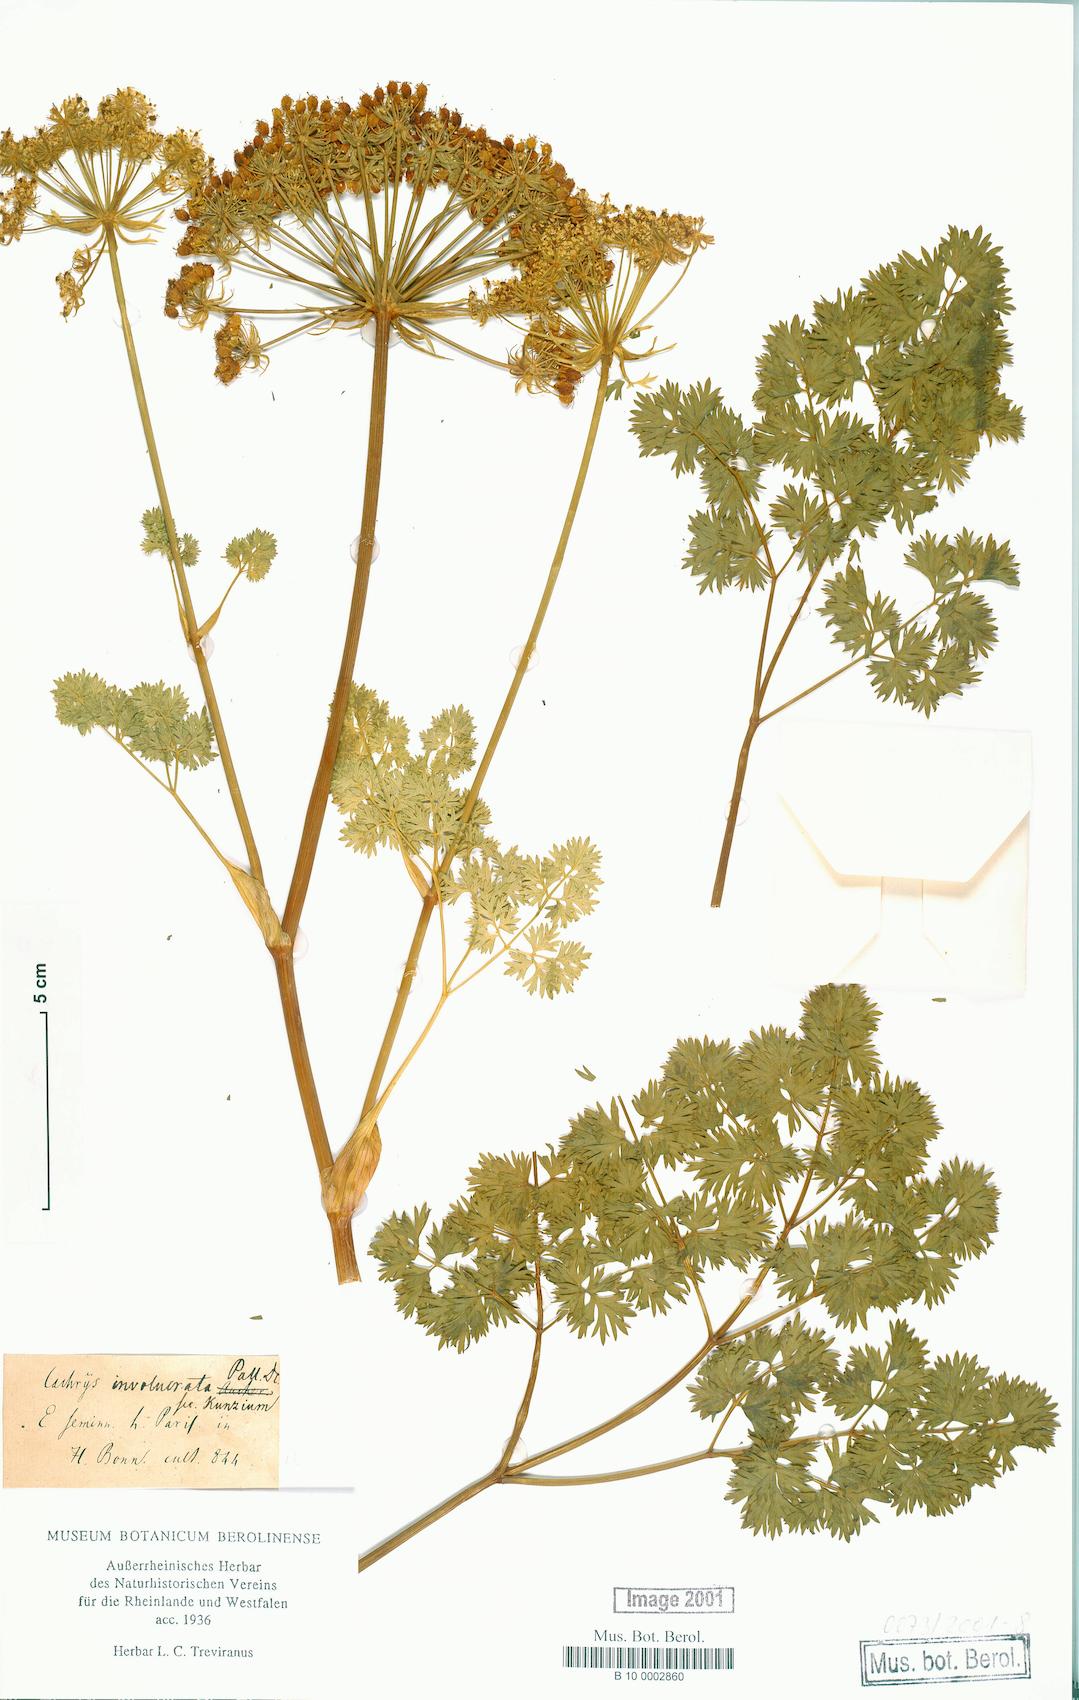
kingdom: Plantae
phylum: Tracheophyta
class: Magnoliopsida
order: Apiales
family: Apiaceae
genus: Cachrys
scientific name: Cachrys involucrata
